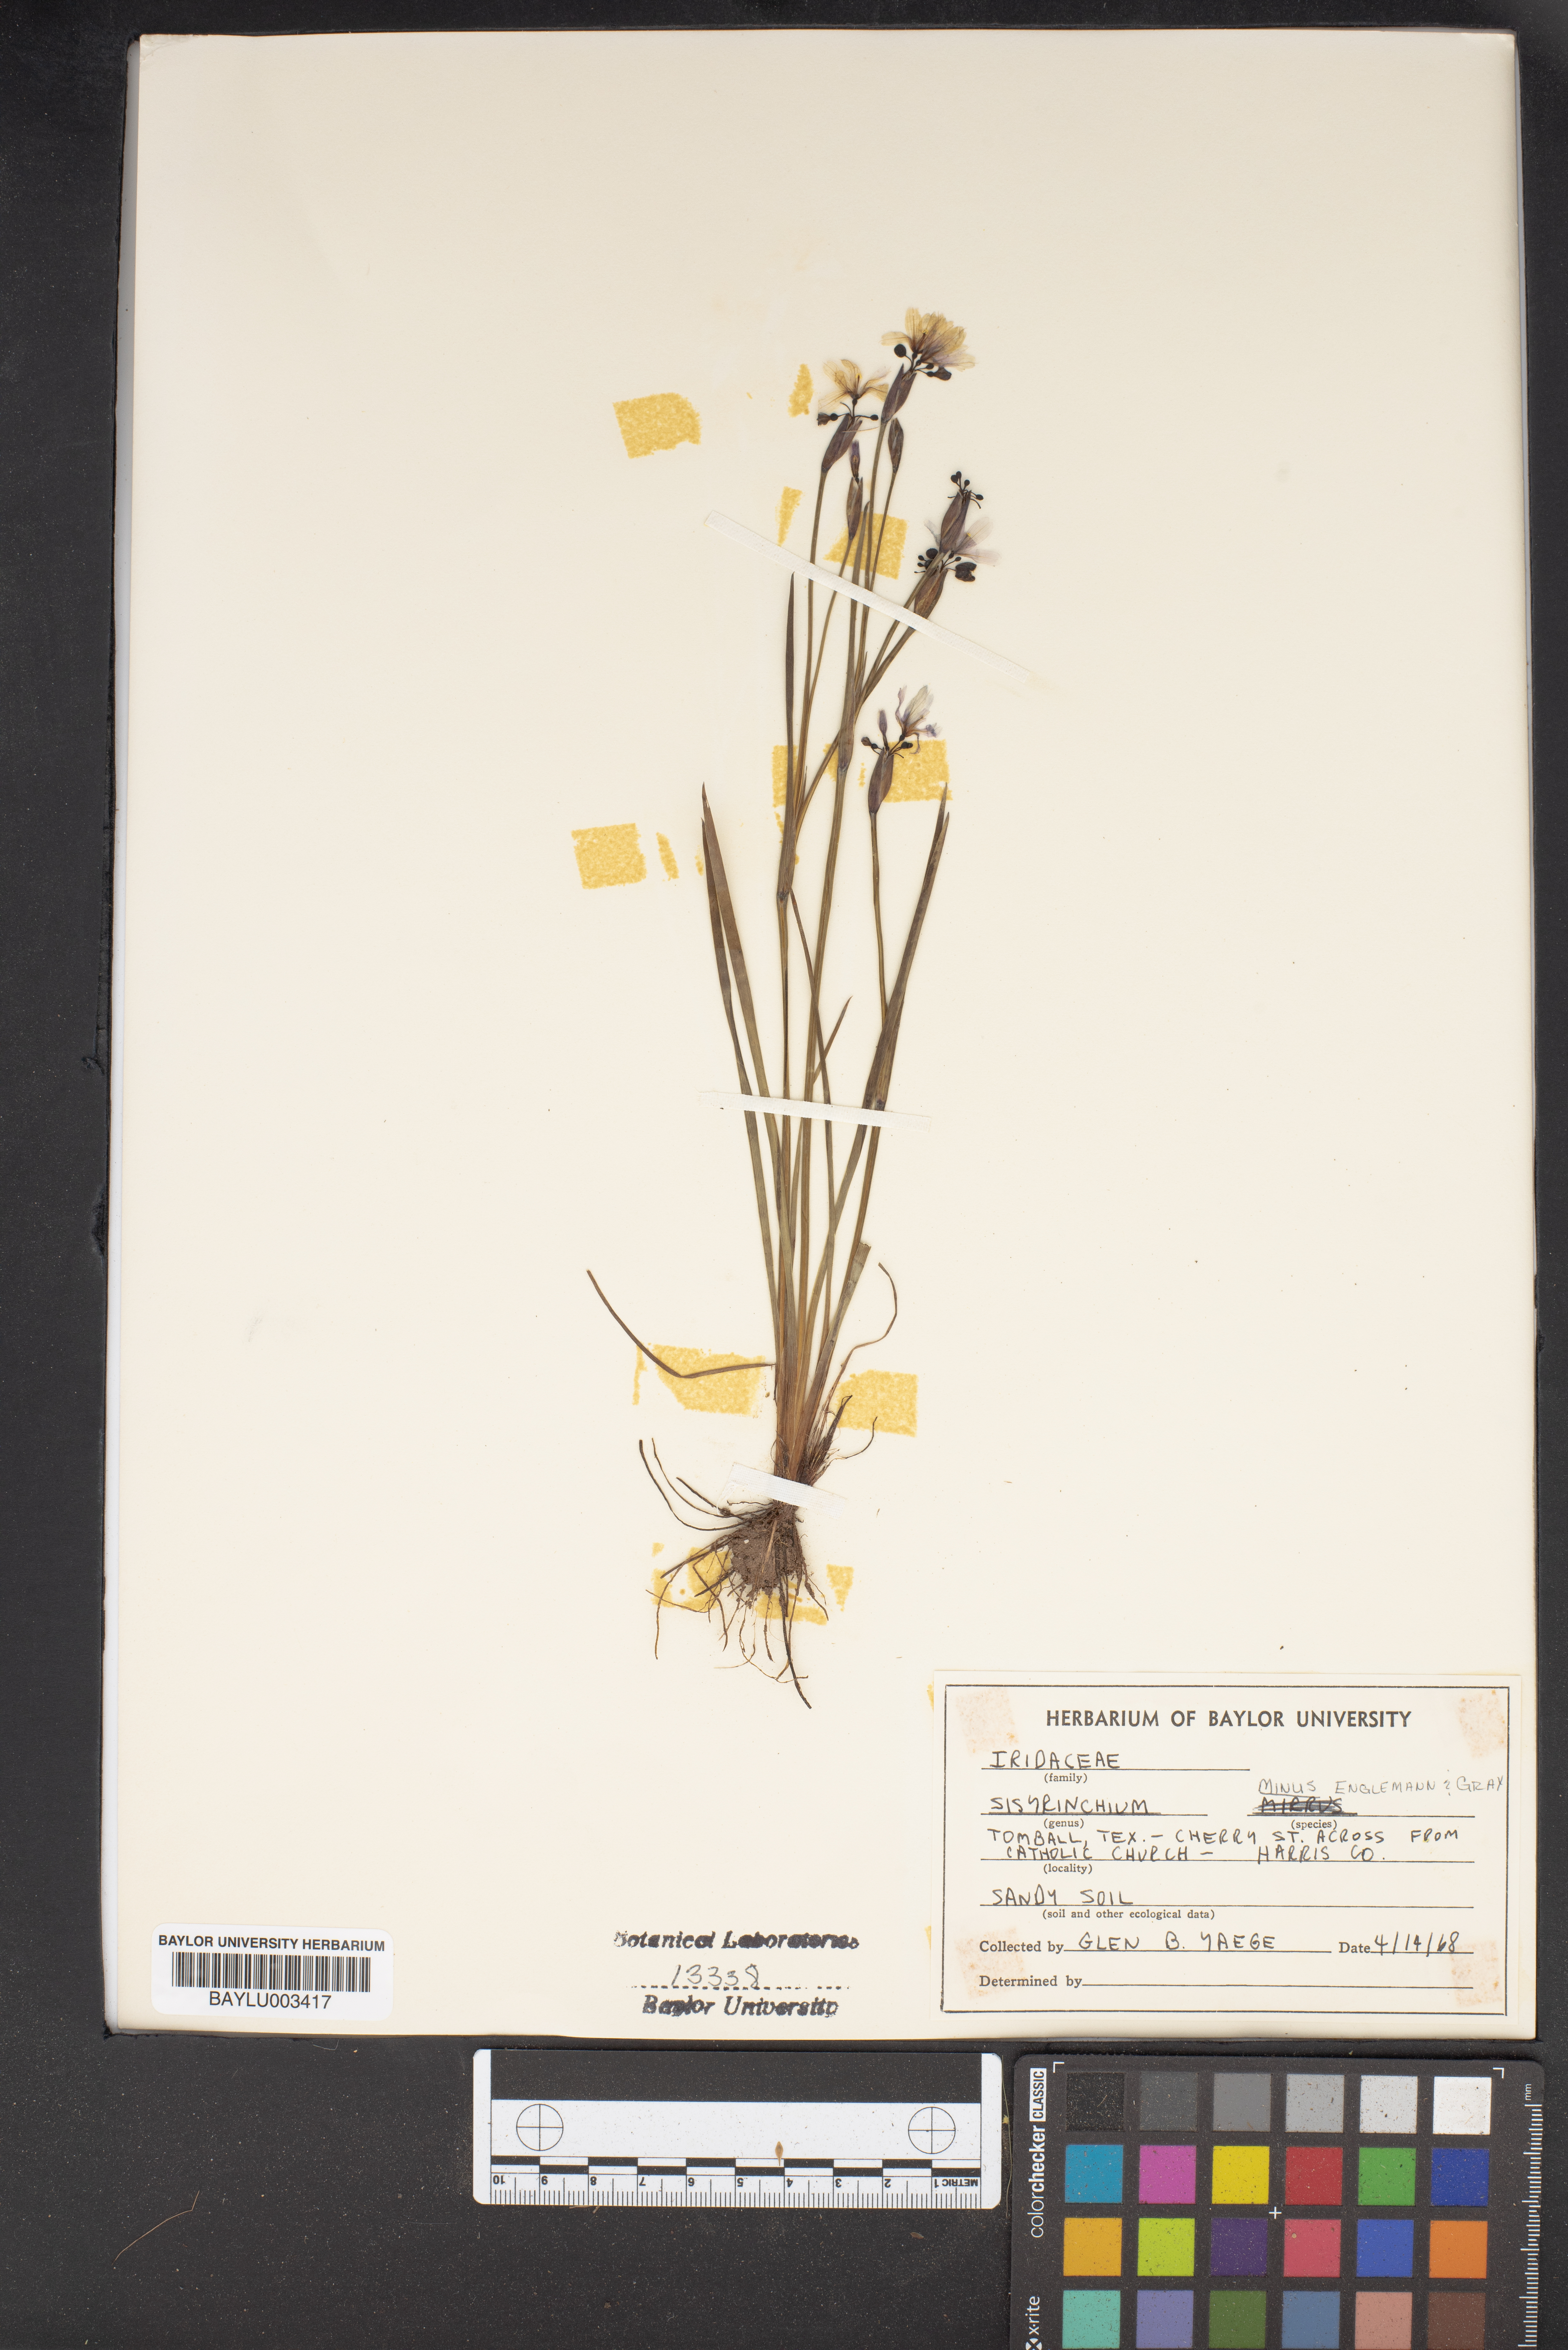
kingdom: Plantae
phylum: Tracheophyta
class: Liliopsida
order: Asparagales
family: Iridaceae
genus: Sisyrinchium
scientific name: Sisyrinchium minus
